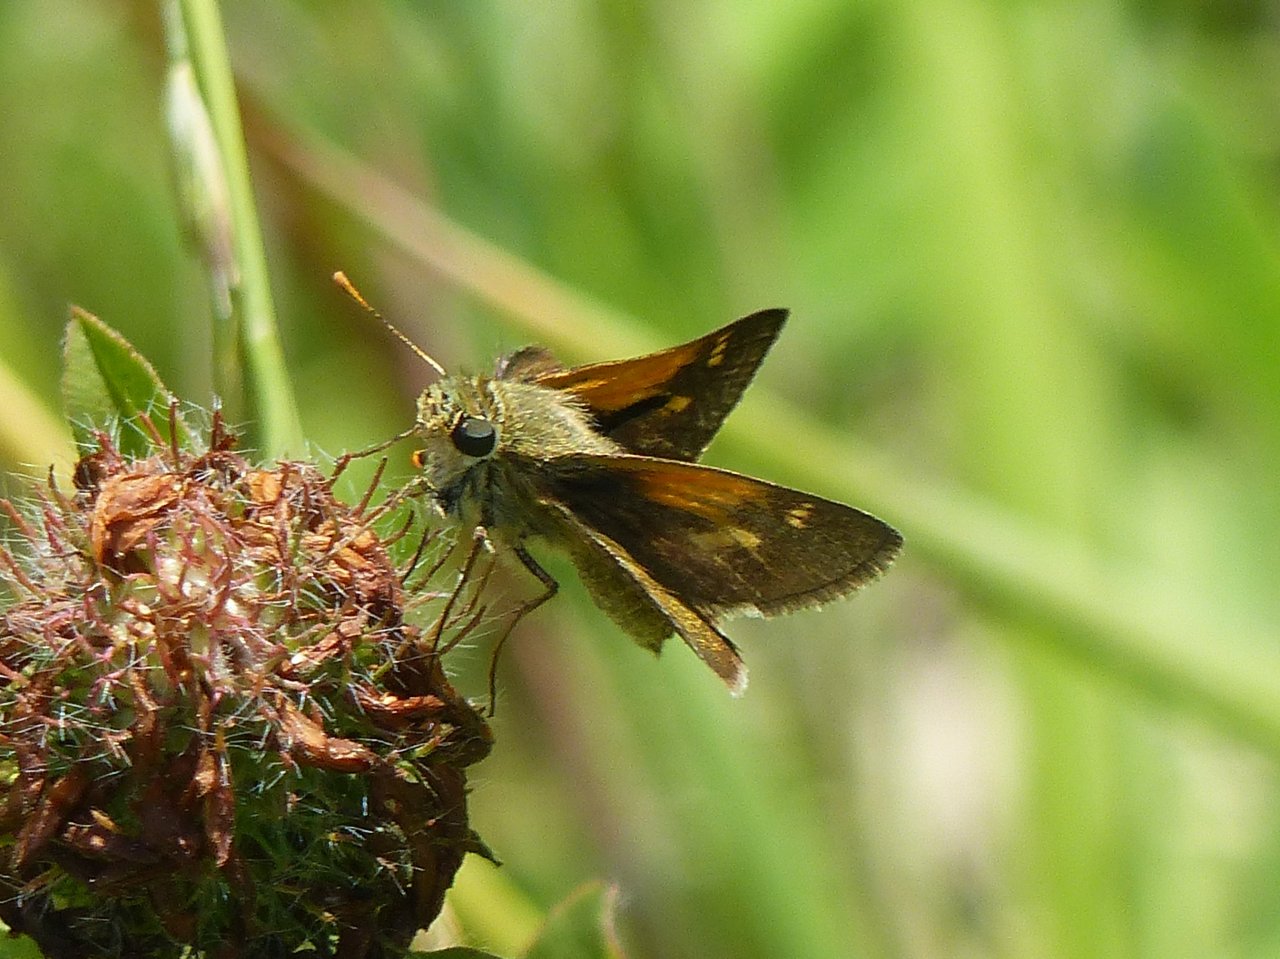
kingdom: Animalia
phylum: Arthropoda
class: Insecta
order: Lepidoptera
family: Hesperiidae
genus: Polites
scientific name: Polites themistocles
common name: Tawny-edged Skipper
